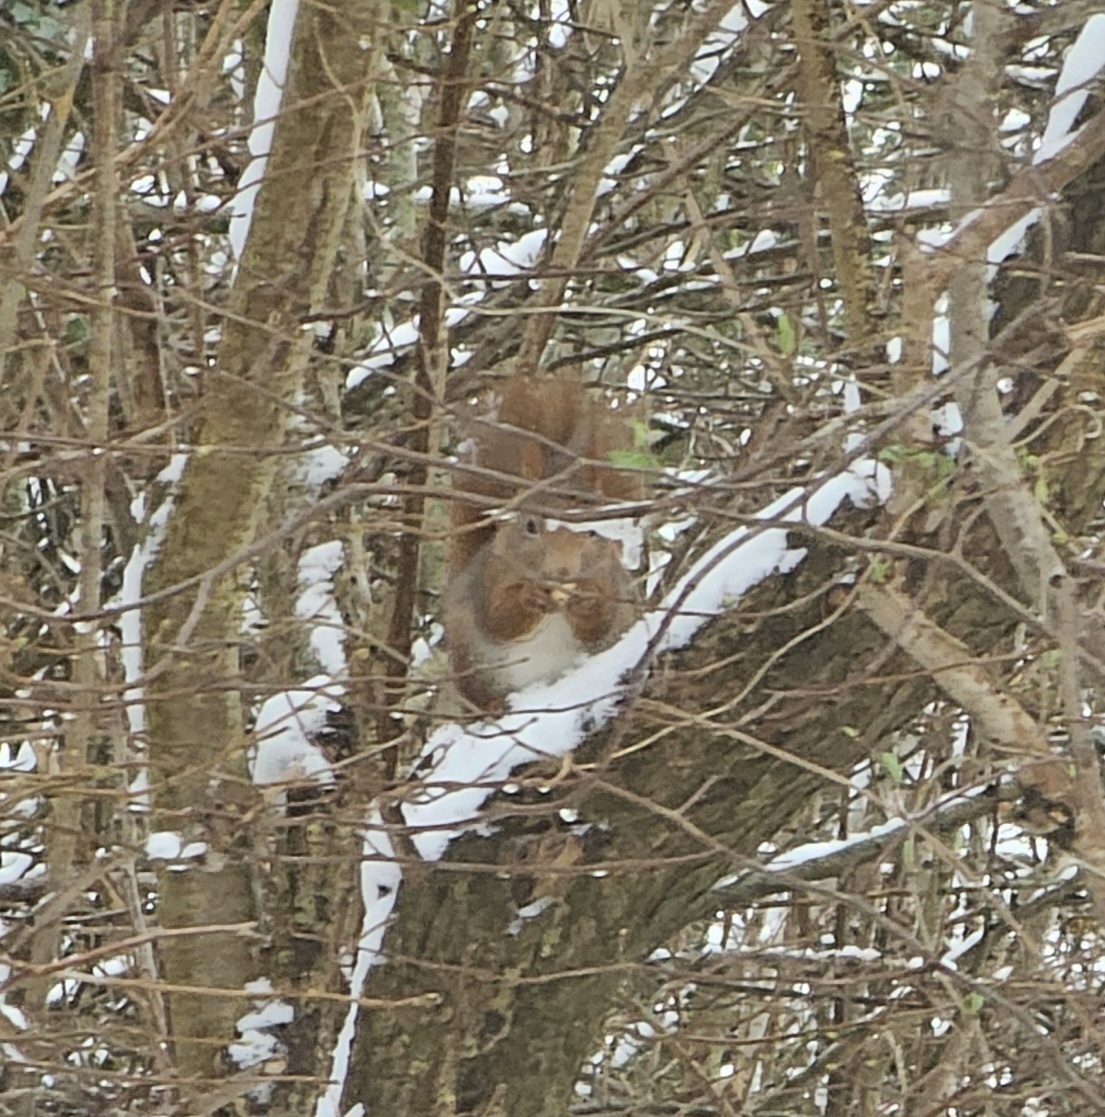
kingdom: Animalia
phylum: Chordata
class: Mammalia
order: Rodentia
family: Sciuridae
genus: Sciurus
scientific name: Sciurus vulgaris
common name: Egern
